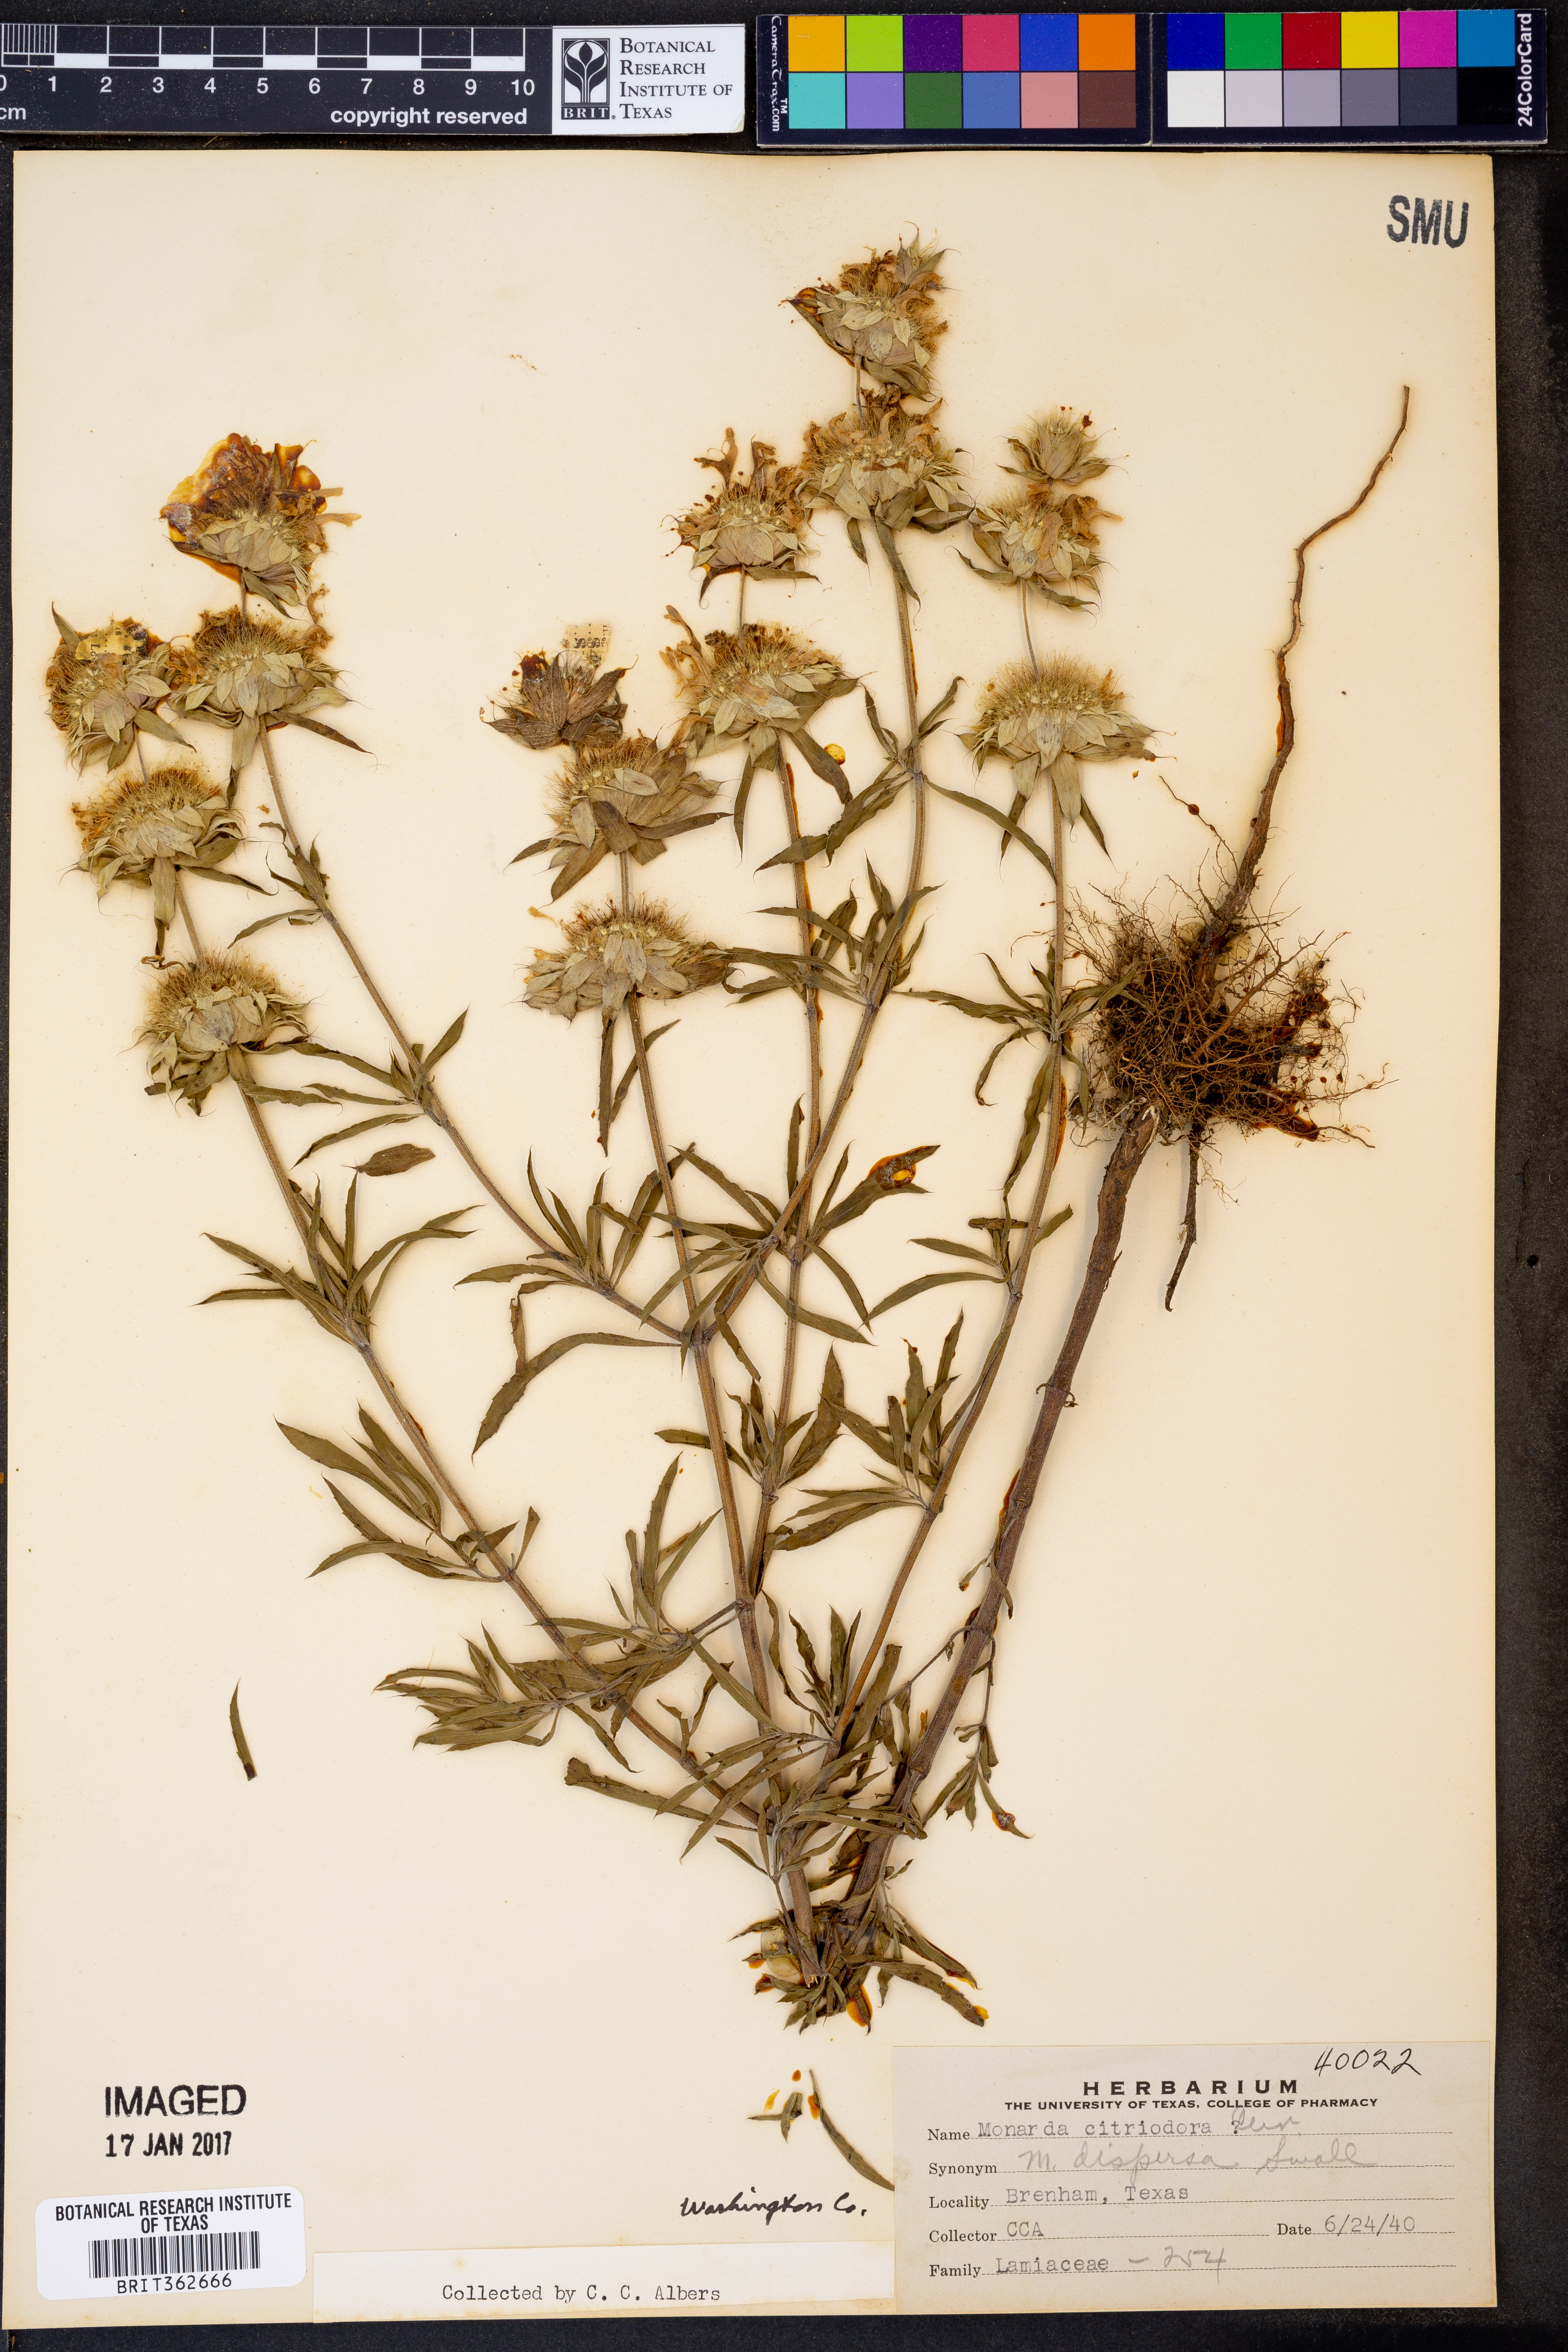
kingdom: Plantae
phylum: Tracheophyta
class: Magnoliopsida
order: Lamiales
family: Lamiaceae
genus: Monarda
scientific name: Monarda citriodora
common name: Lemon beebalm
